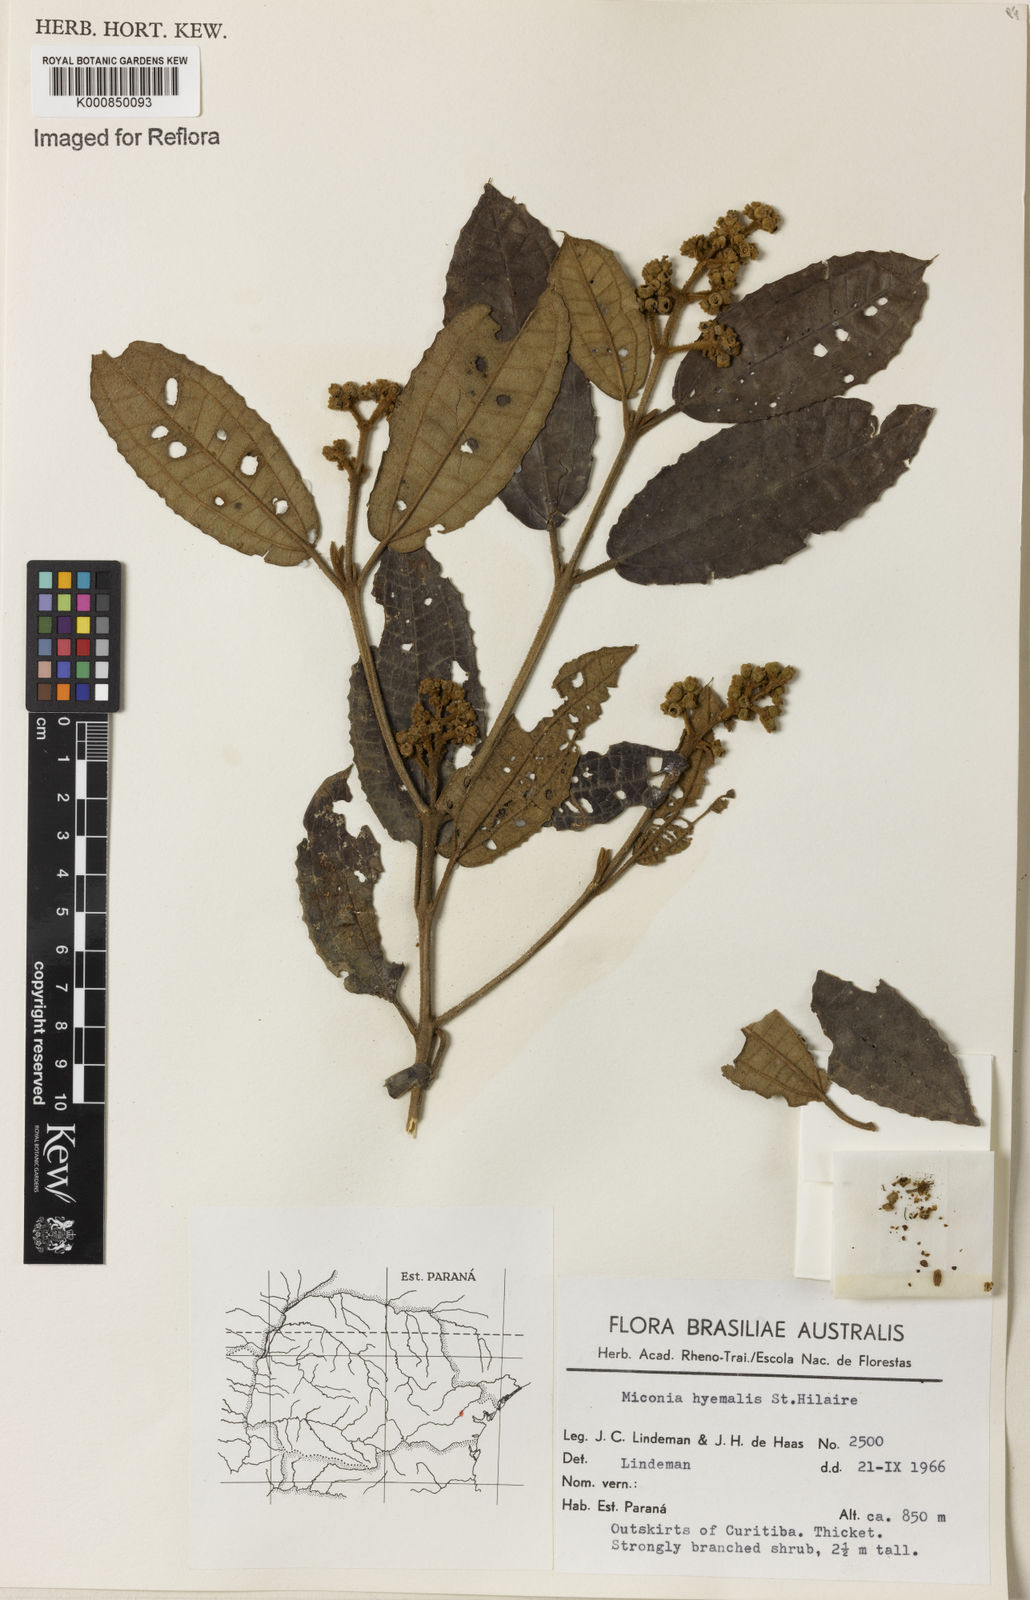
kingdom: Plantae
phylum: Tracheophyta
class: Magnoliopsida
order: Myrtales
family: Melastomataceae
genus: Miconia
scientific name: Miconia hyemalis
